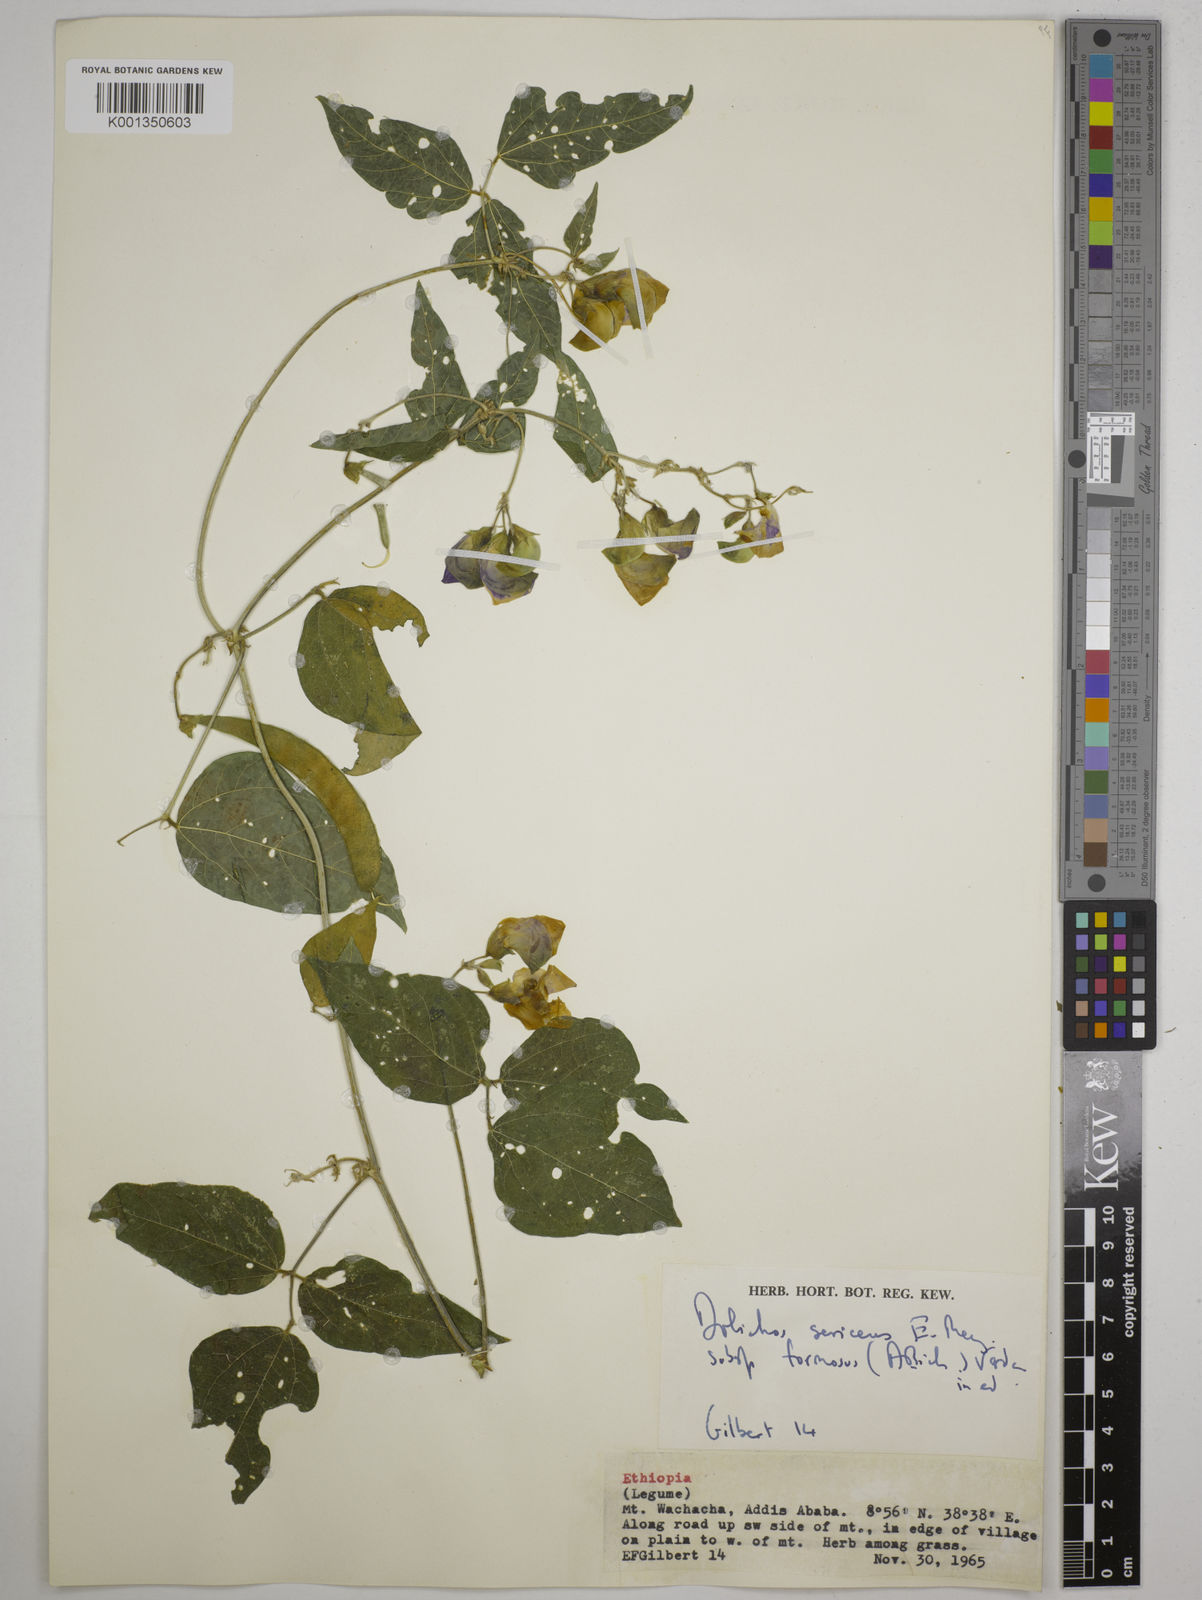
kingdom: Plantae
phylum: Tracheophyta
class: Magnoliopsida
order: Fabales
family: Fabaceae
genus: Dolichos
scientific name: Dolichos
